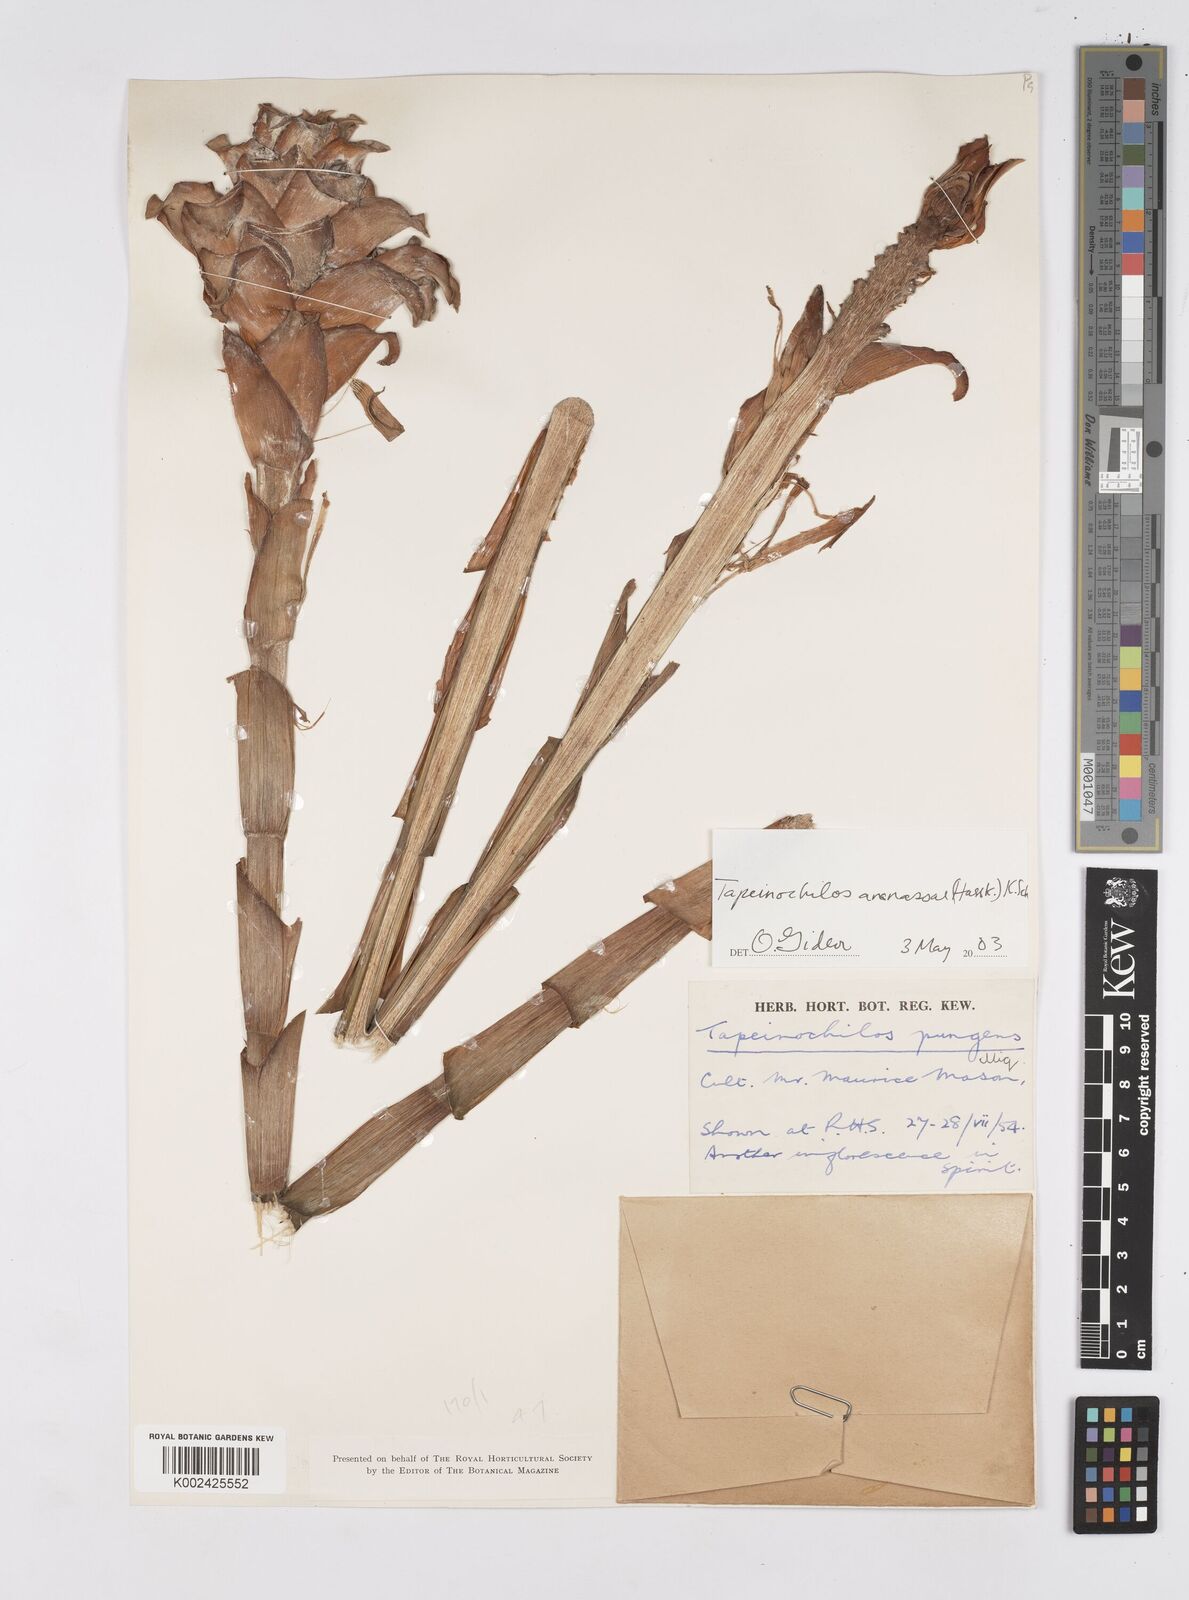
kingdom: Plantae
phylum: Tracheophyta
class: Liliopsida
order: Zingiberales
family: Costaceae
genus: Tapeinochilos
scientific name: Tapeinochilos ananassae
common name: Torch-ginger
